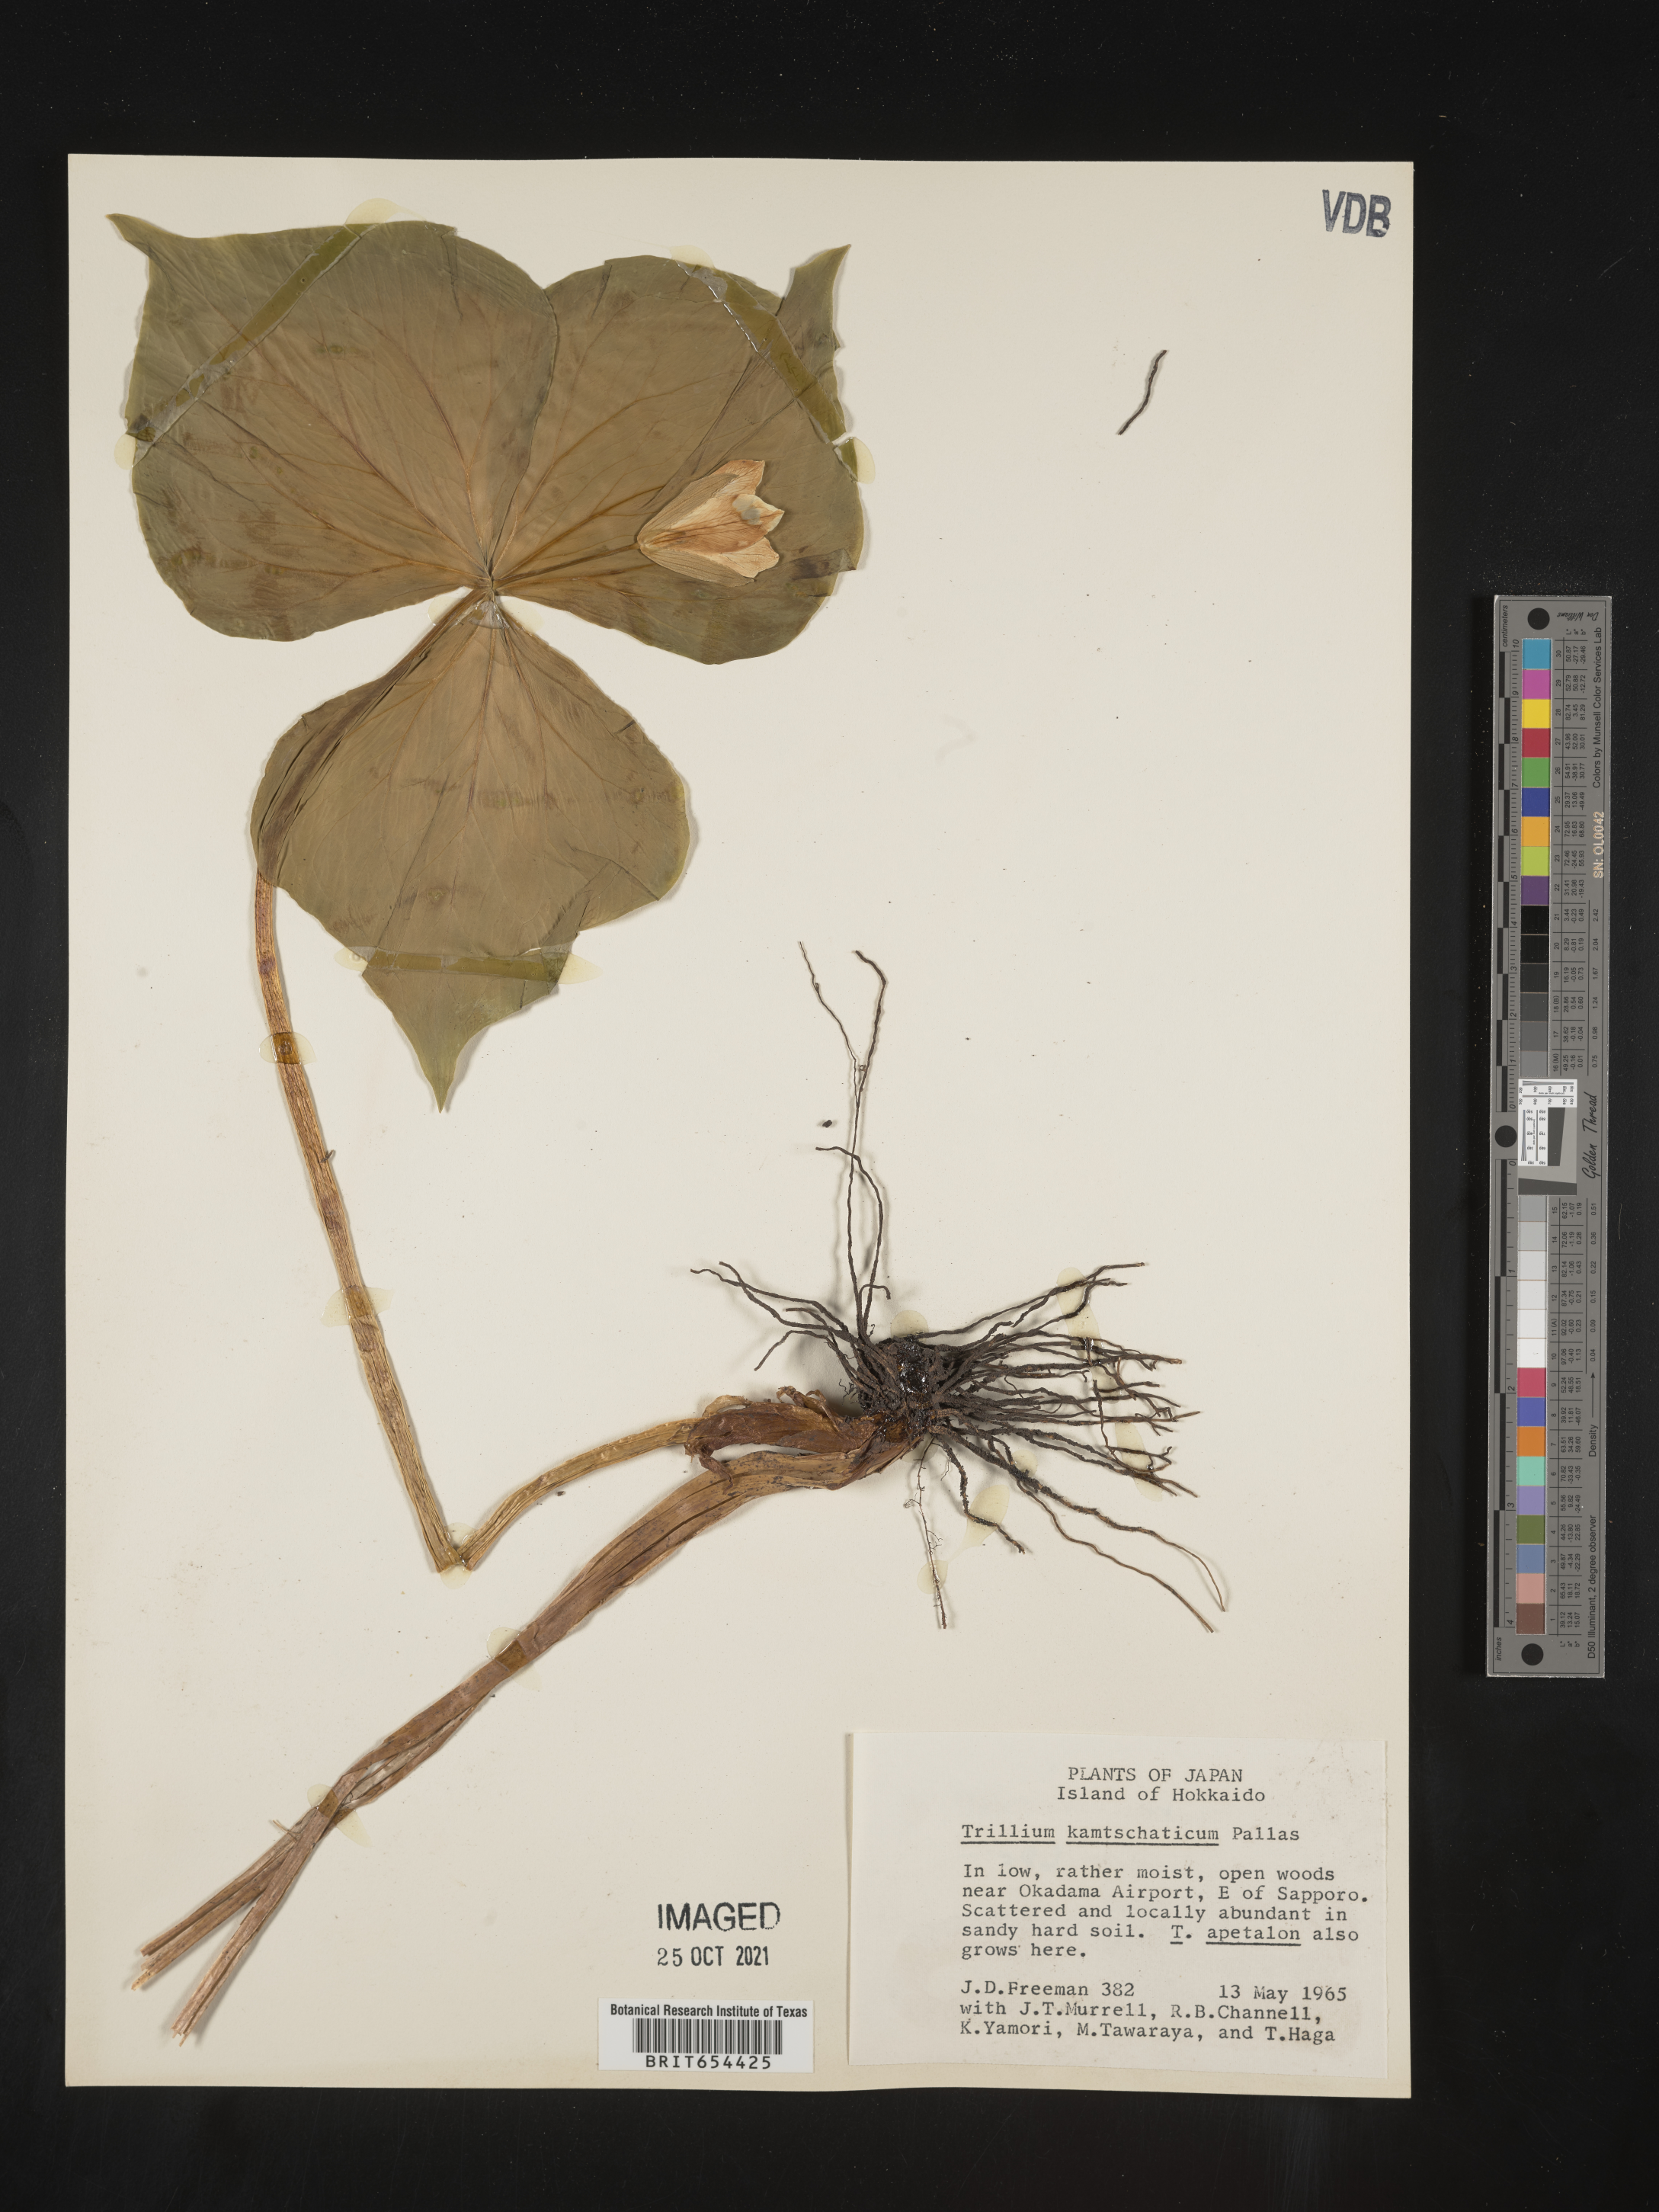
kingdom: Plantae
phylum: Tracheophyta
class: Liliopsida
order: Liliales
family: Melanthiaceae
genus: Trillium
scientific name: Trillium
